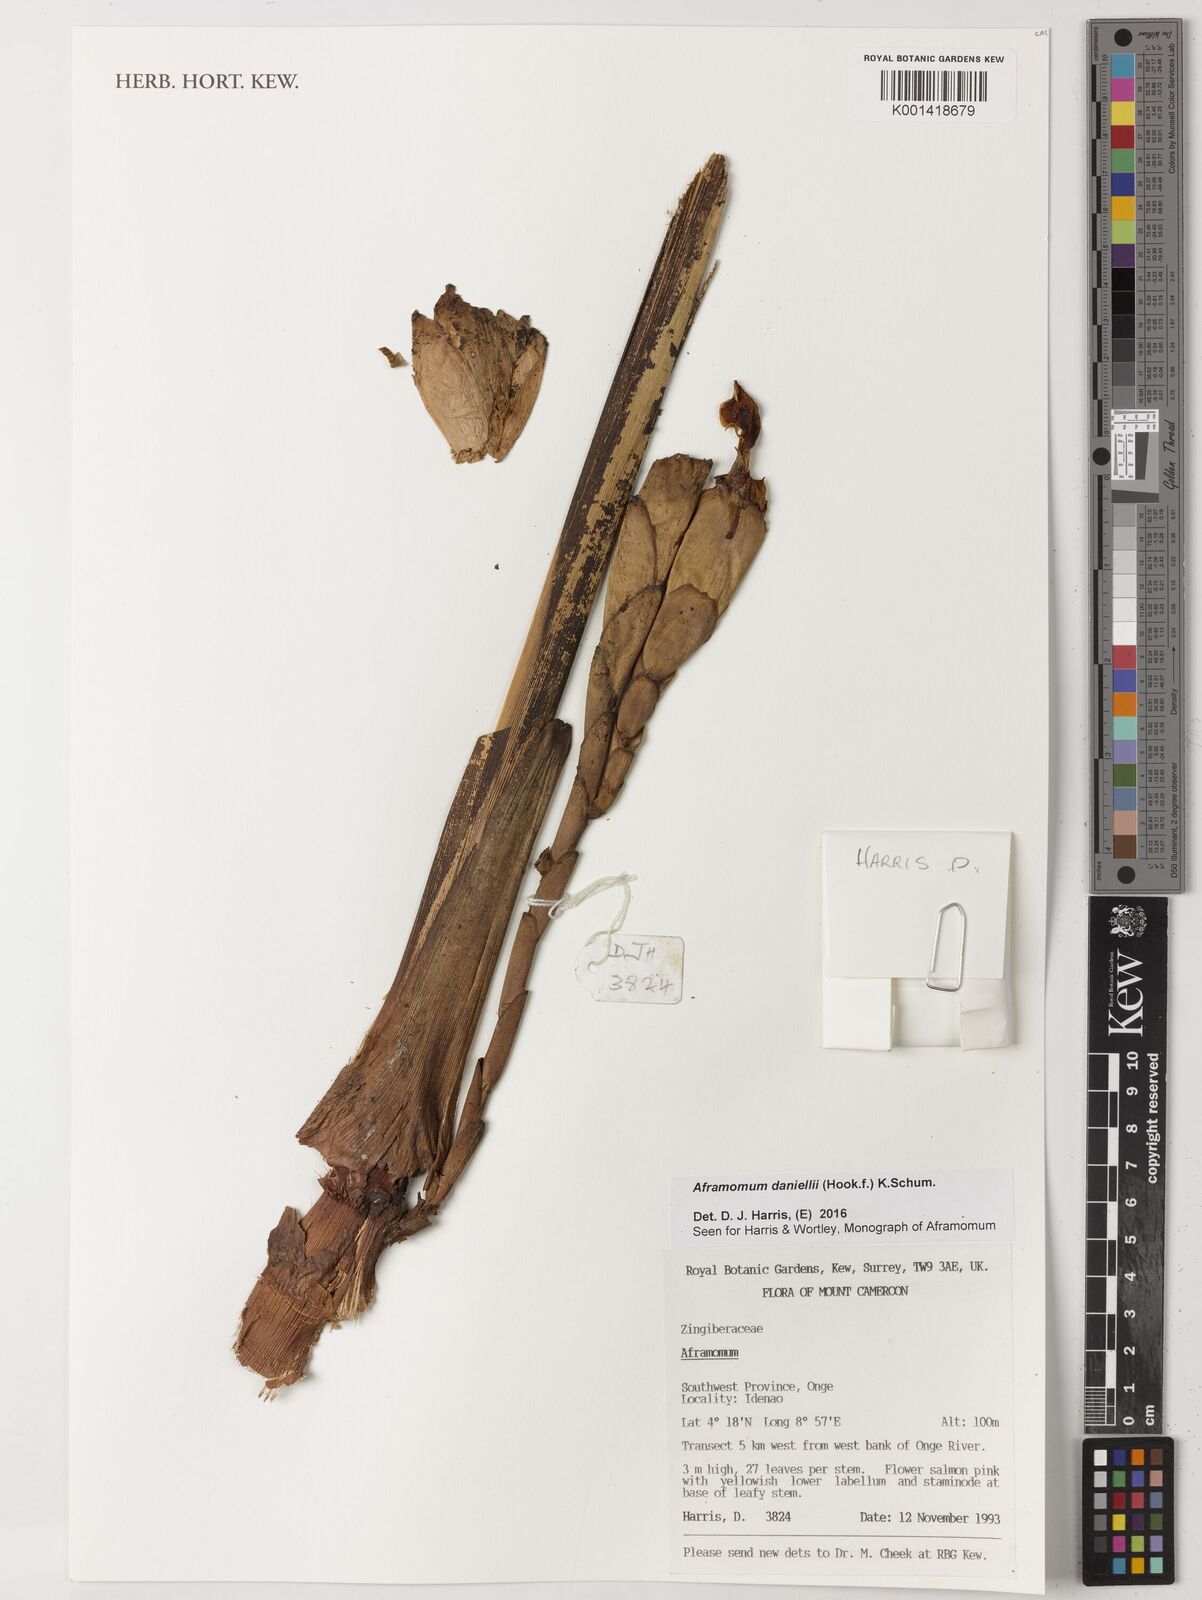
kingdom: Plantae
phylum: Tracheophyta
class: Liliopsida
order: Zingiberales
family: Zingiberaceae
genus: Aframomum
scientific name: Aframomum daniellii
